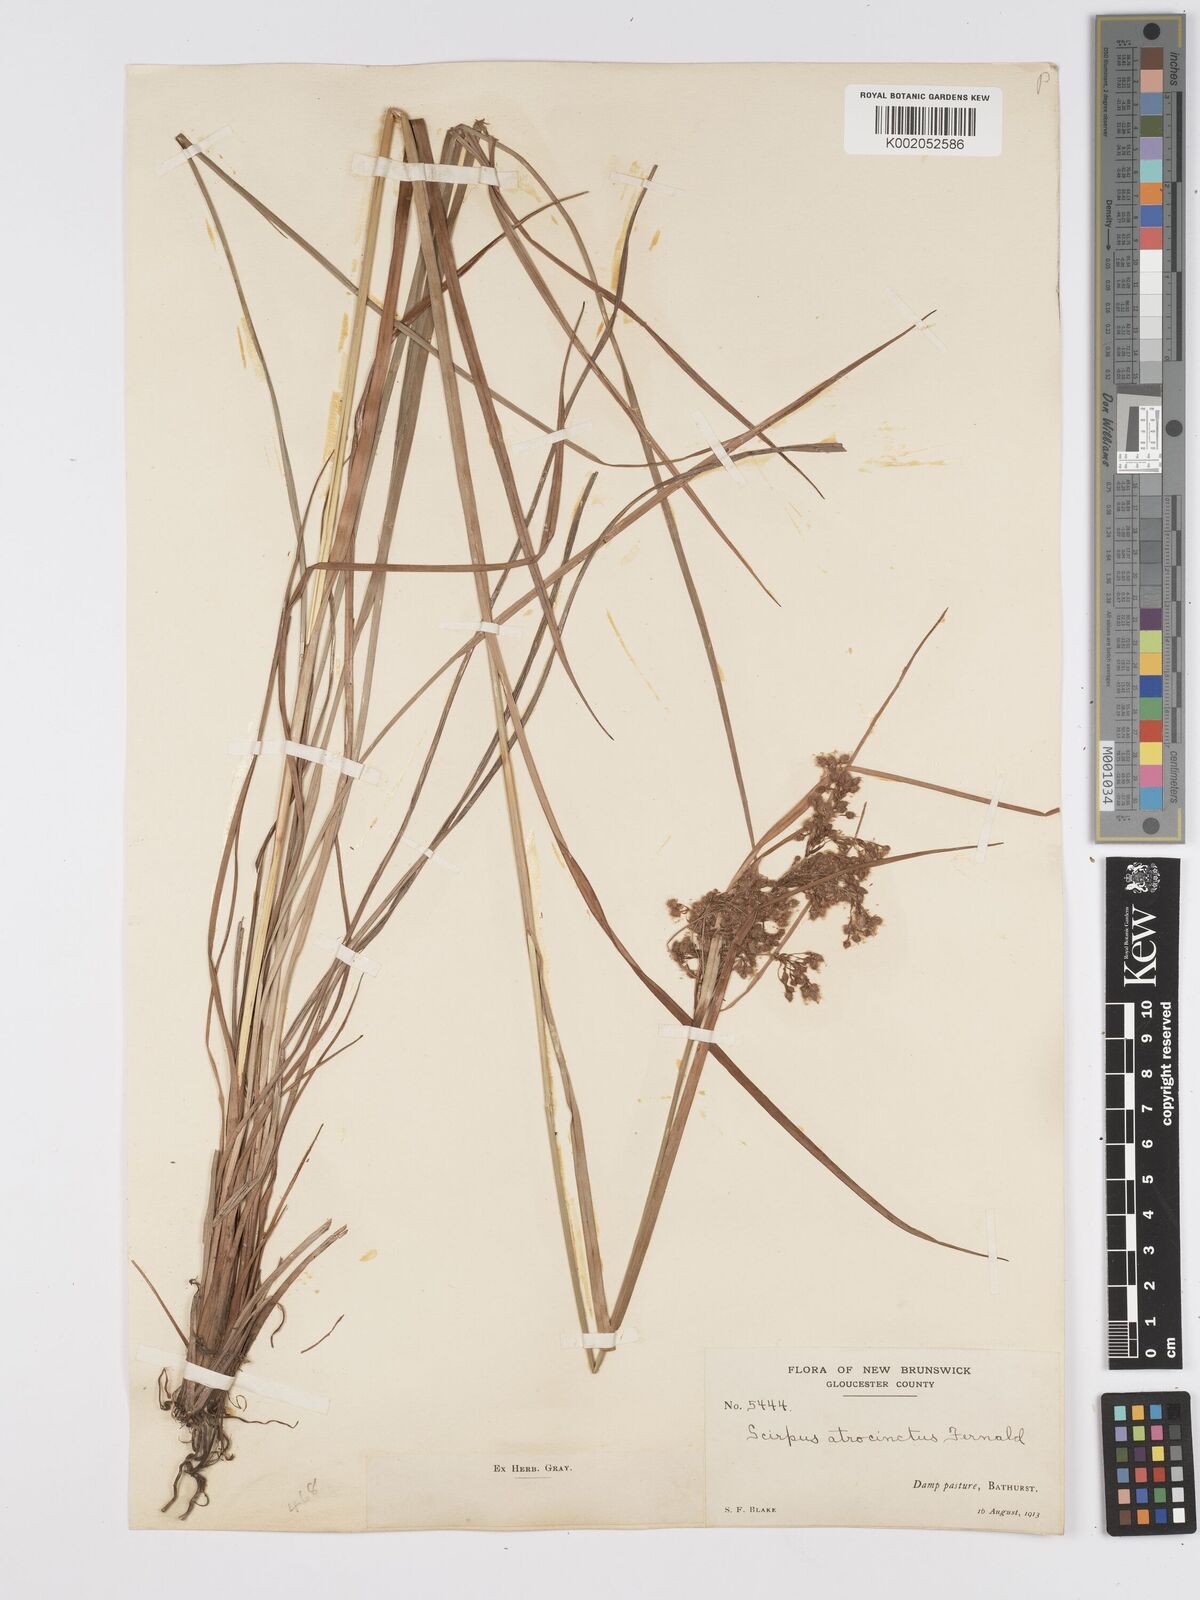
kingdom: Plantae
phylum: Tracheophyta
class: Liliopsida
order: Poales
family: Cyperaceae
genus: Scirpus
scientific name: Scirpus atrocinctus
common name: Black-girdled bulrush
